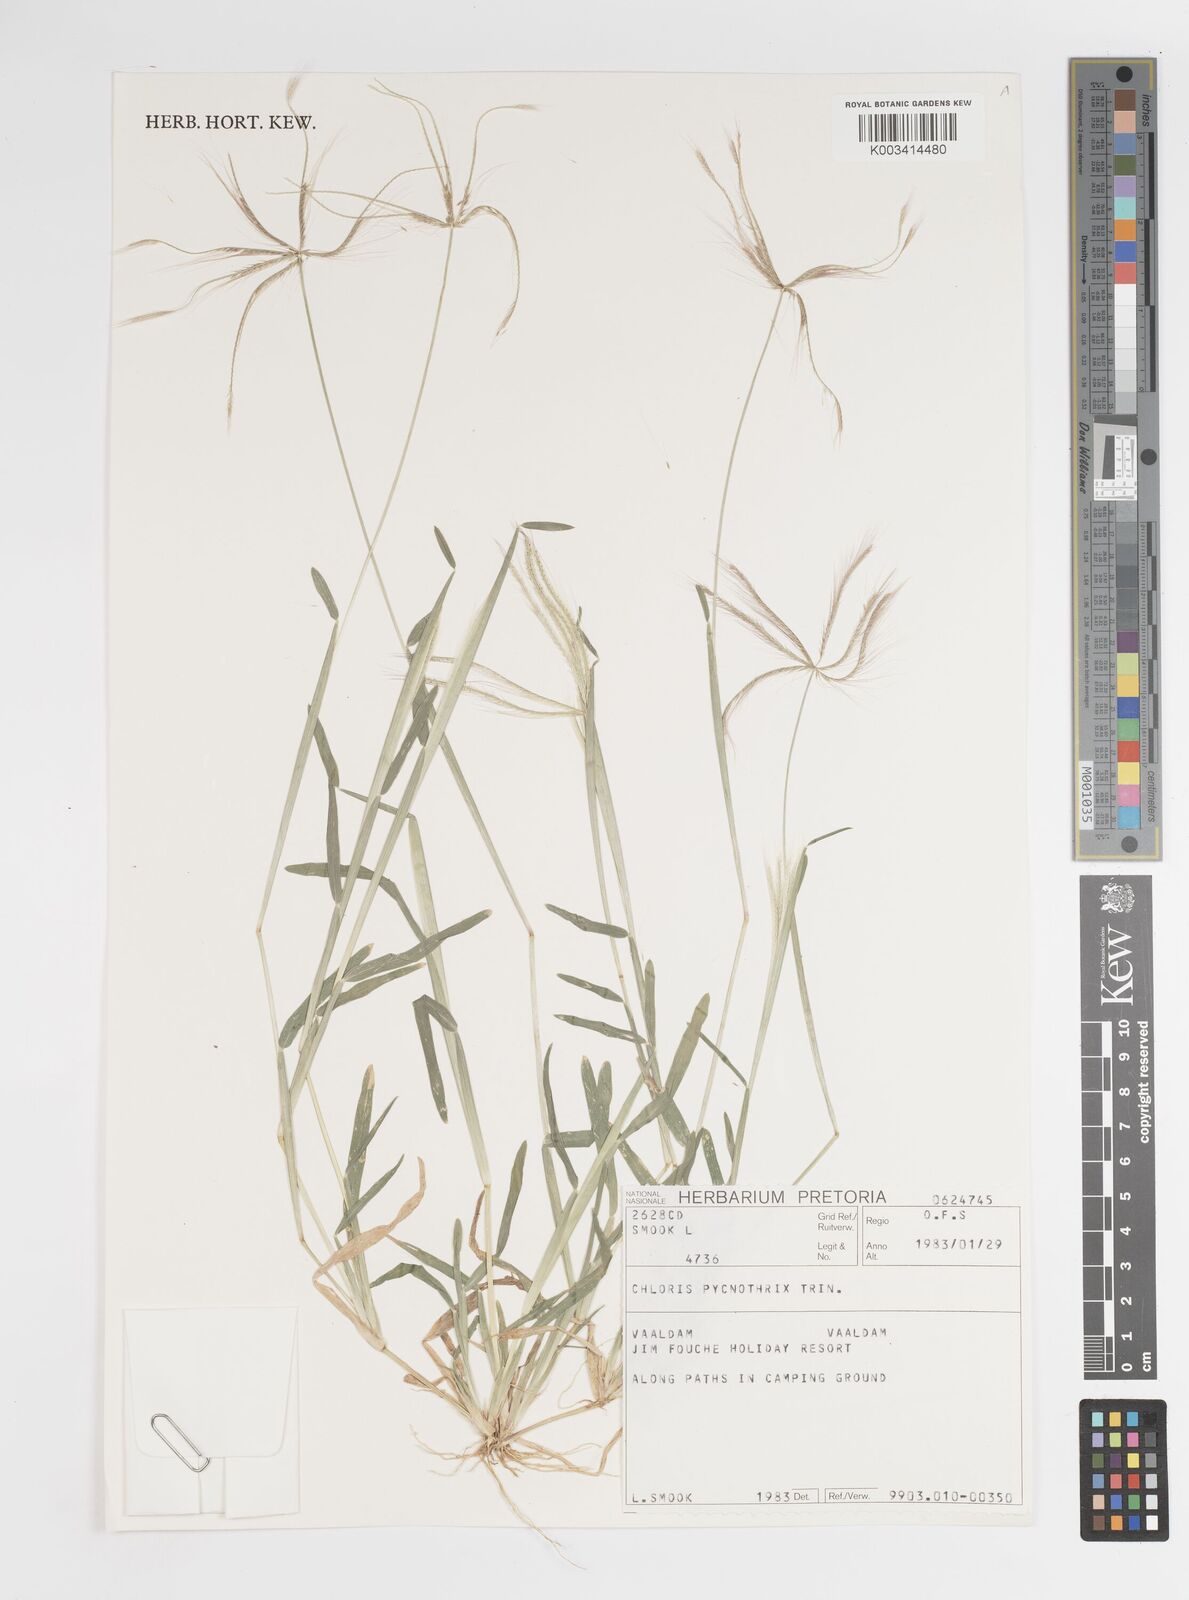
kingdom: Plantae
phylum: Tracheophyta
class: Liliopsida
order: Poales
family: Poaceae
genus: Chloris
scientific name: Chloris pycnothrix
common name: Spiderweb chloris
